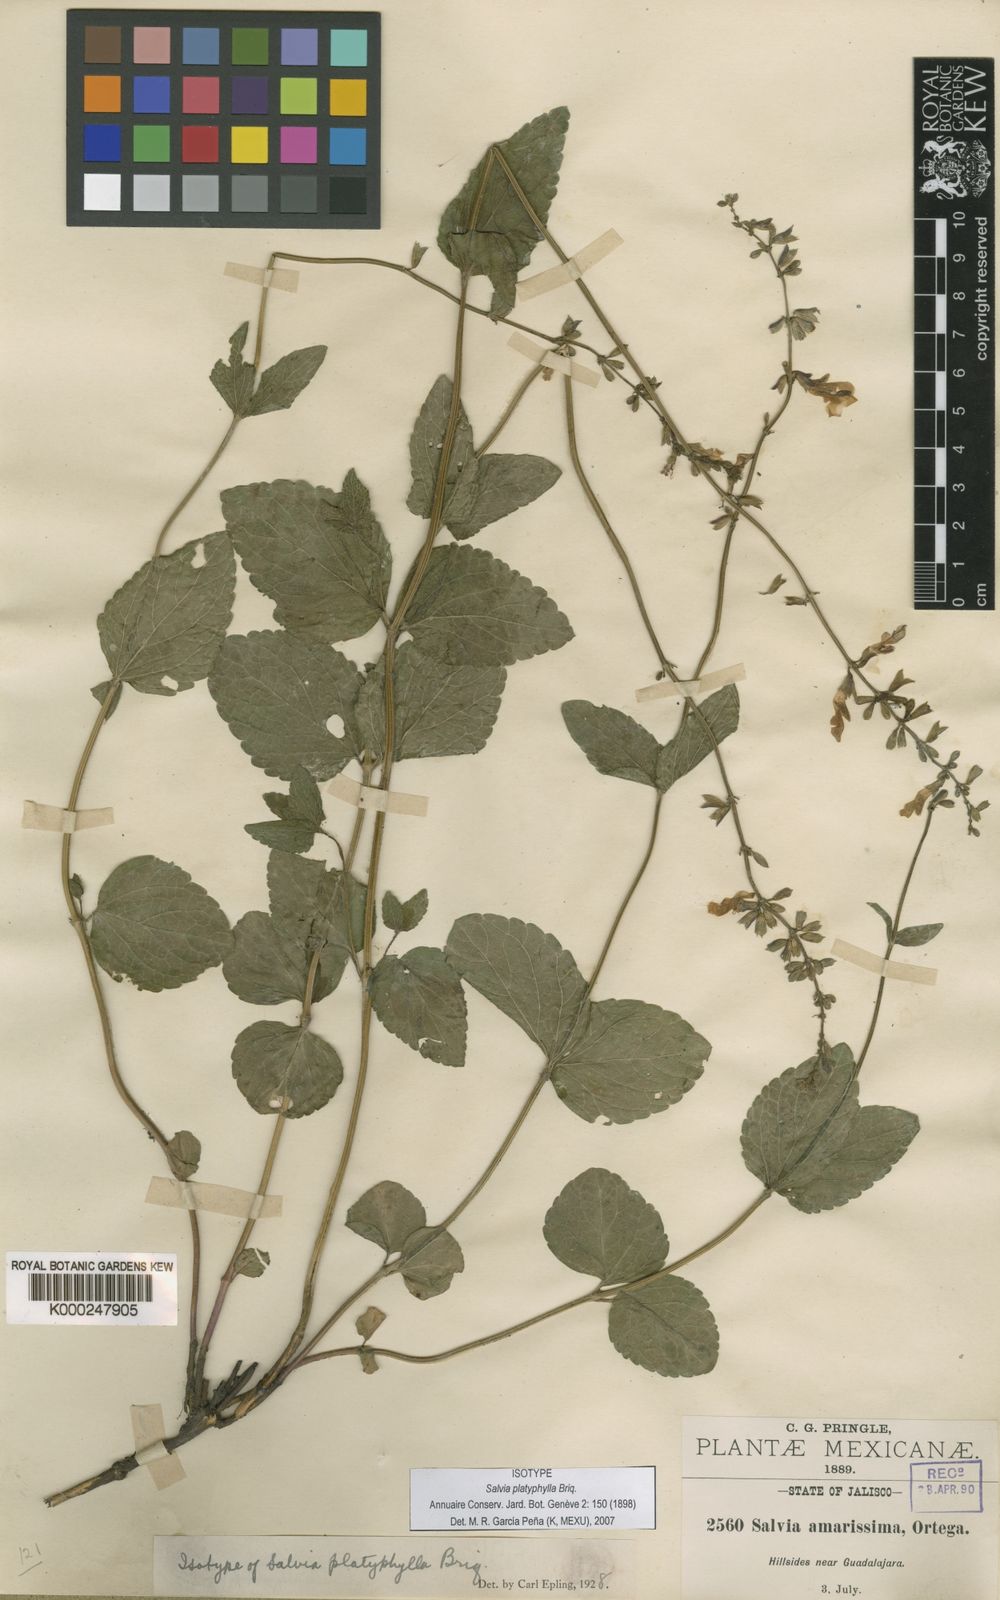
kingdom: Plantae
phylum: Tracheophyta
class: Magnoliopsida
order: Lamiales
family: Lamiaceae
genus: Salvia
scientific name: Salvia platyphylla
